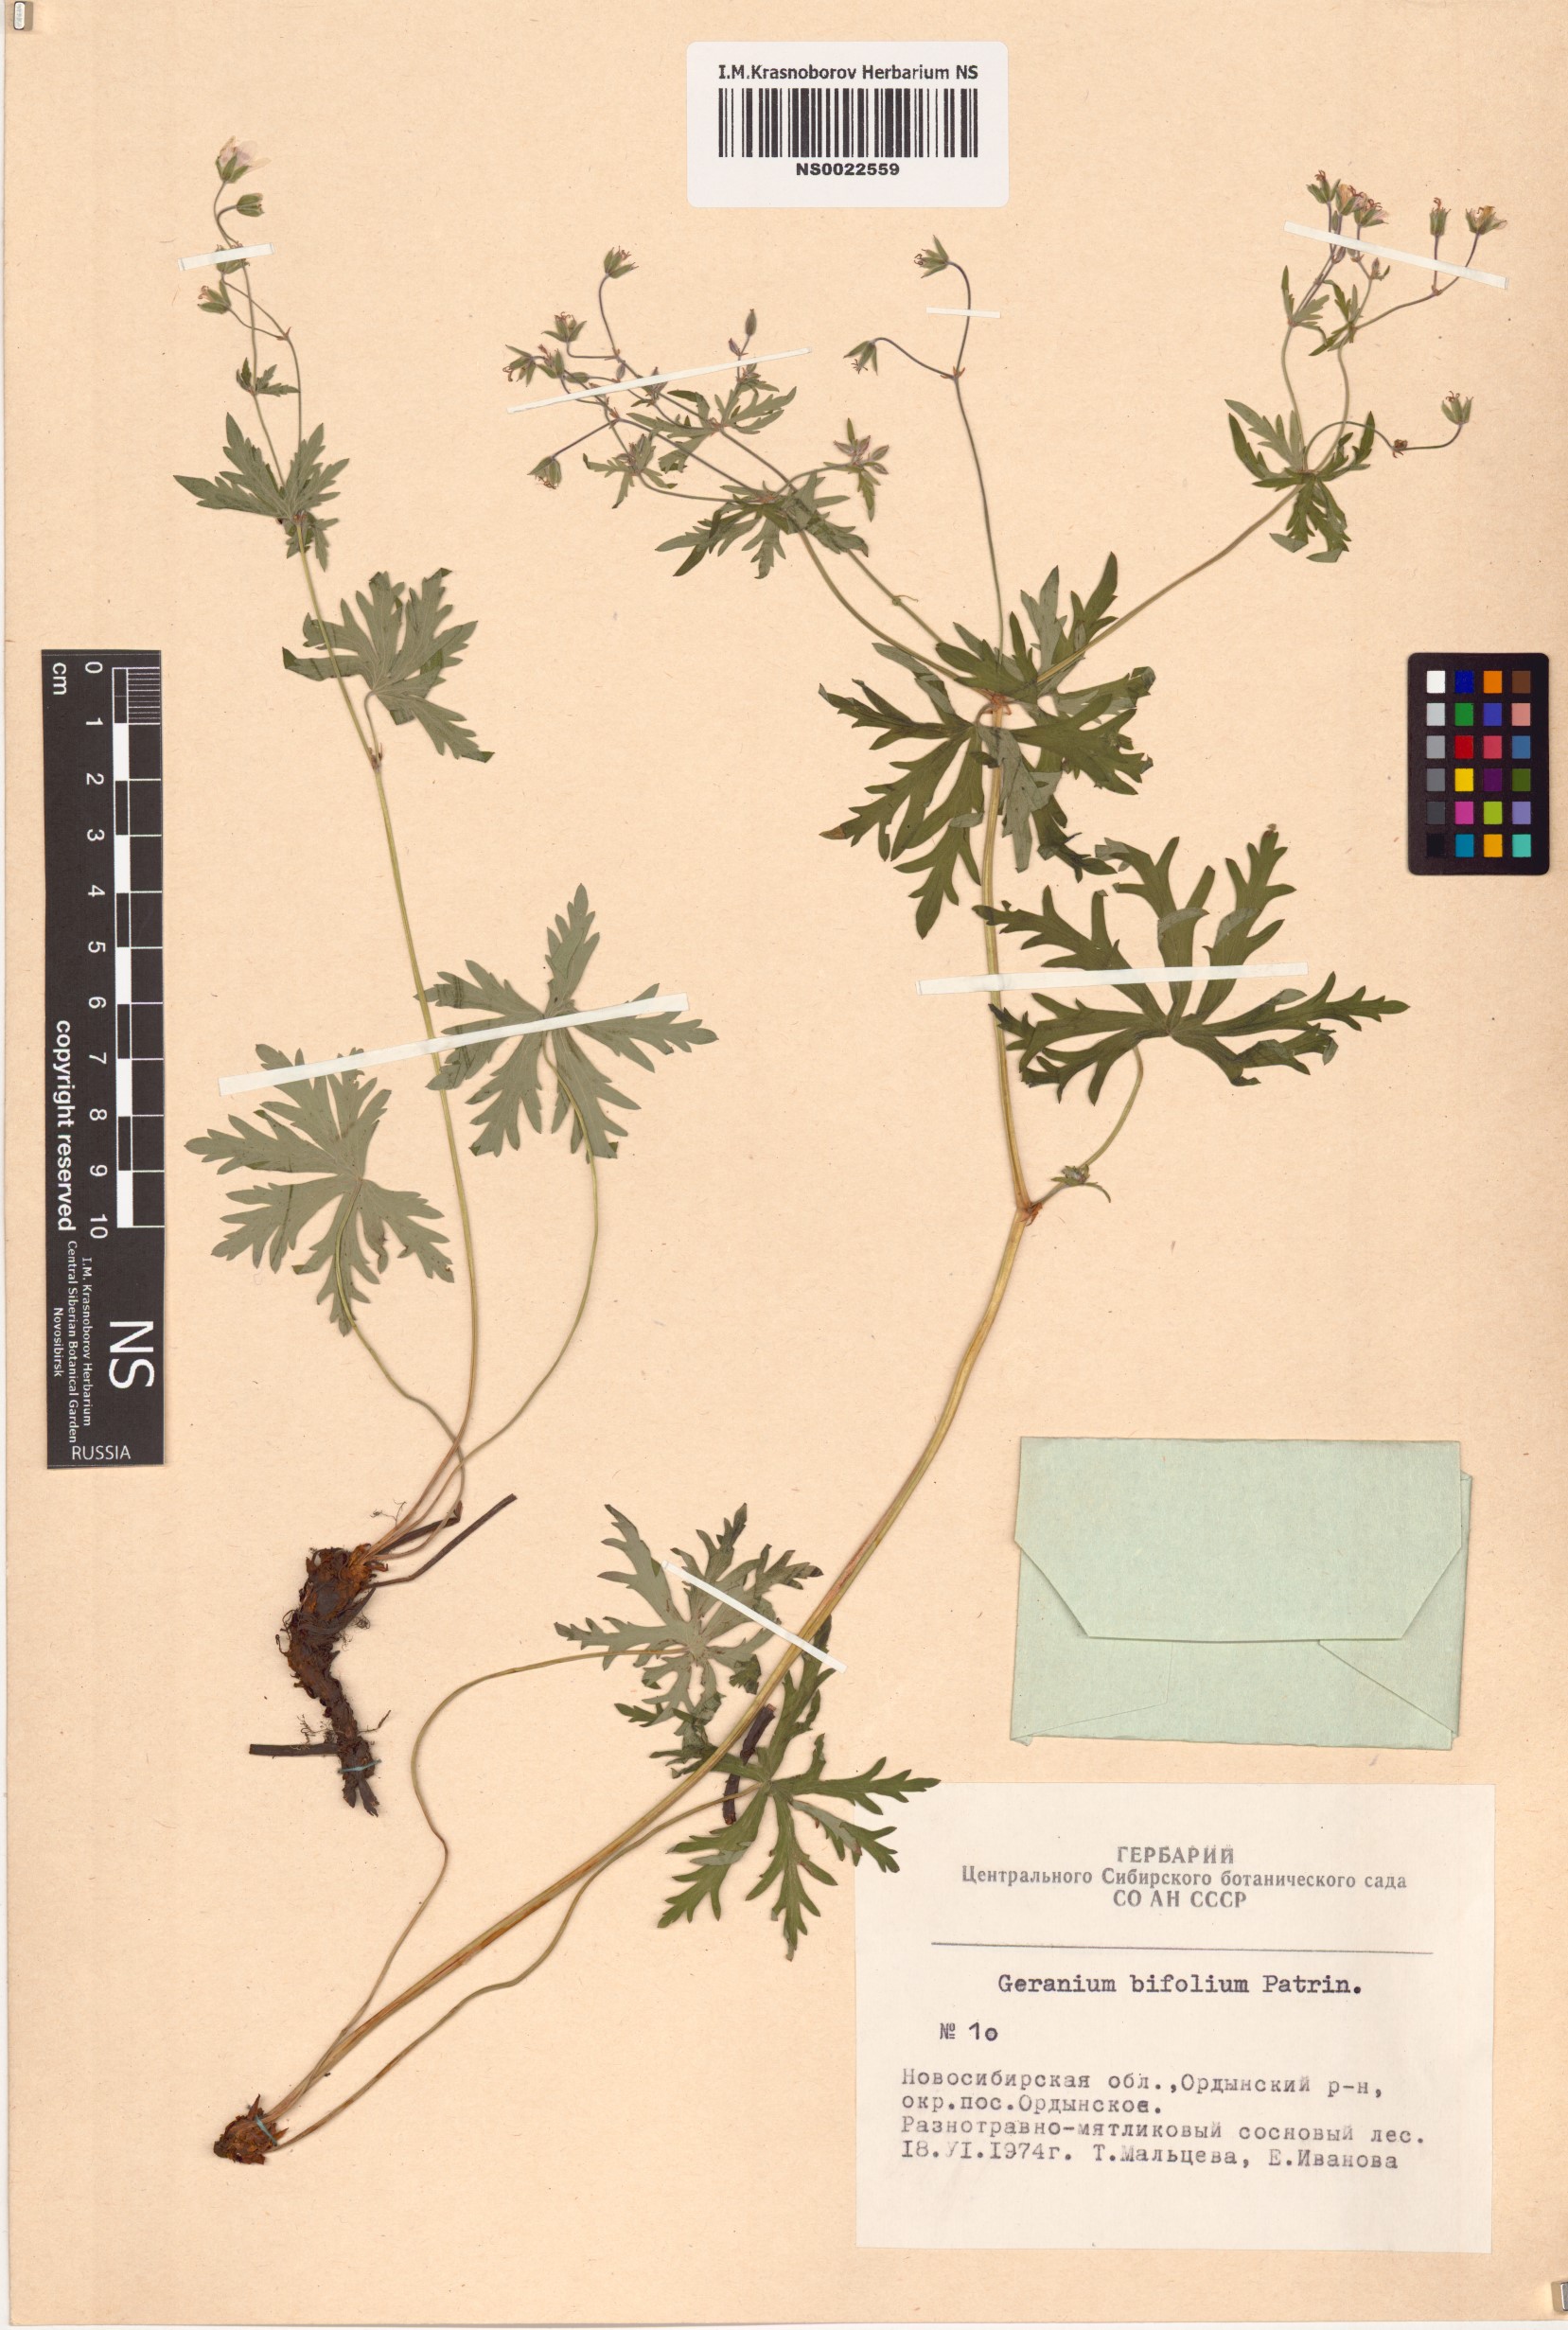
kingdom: Plantae
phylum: Tracheophyta
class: Magnoliopsida
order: Geraniales
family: Geraniaceae
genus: Geranium
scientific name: Geranium pseudosibiricum
